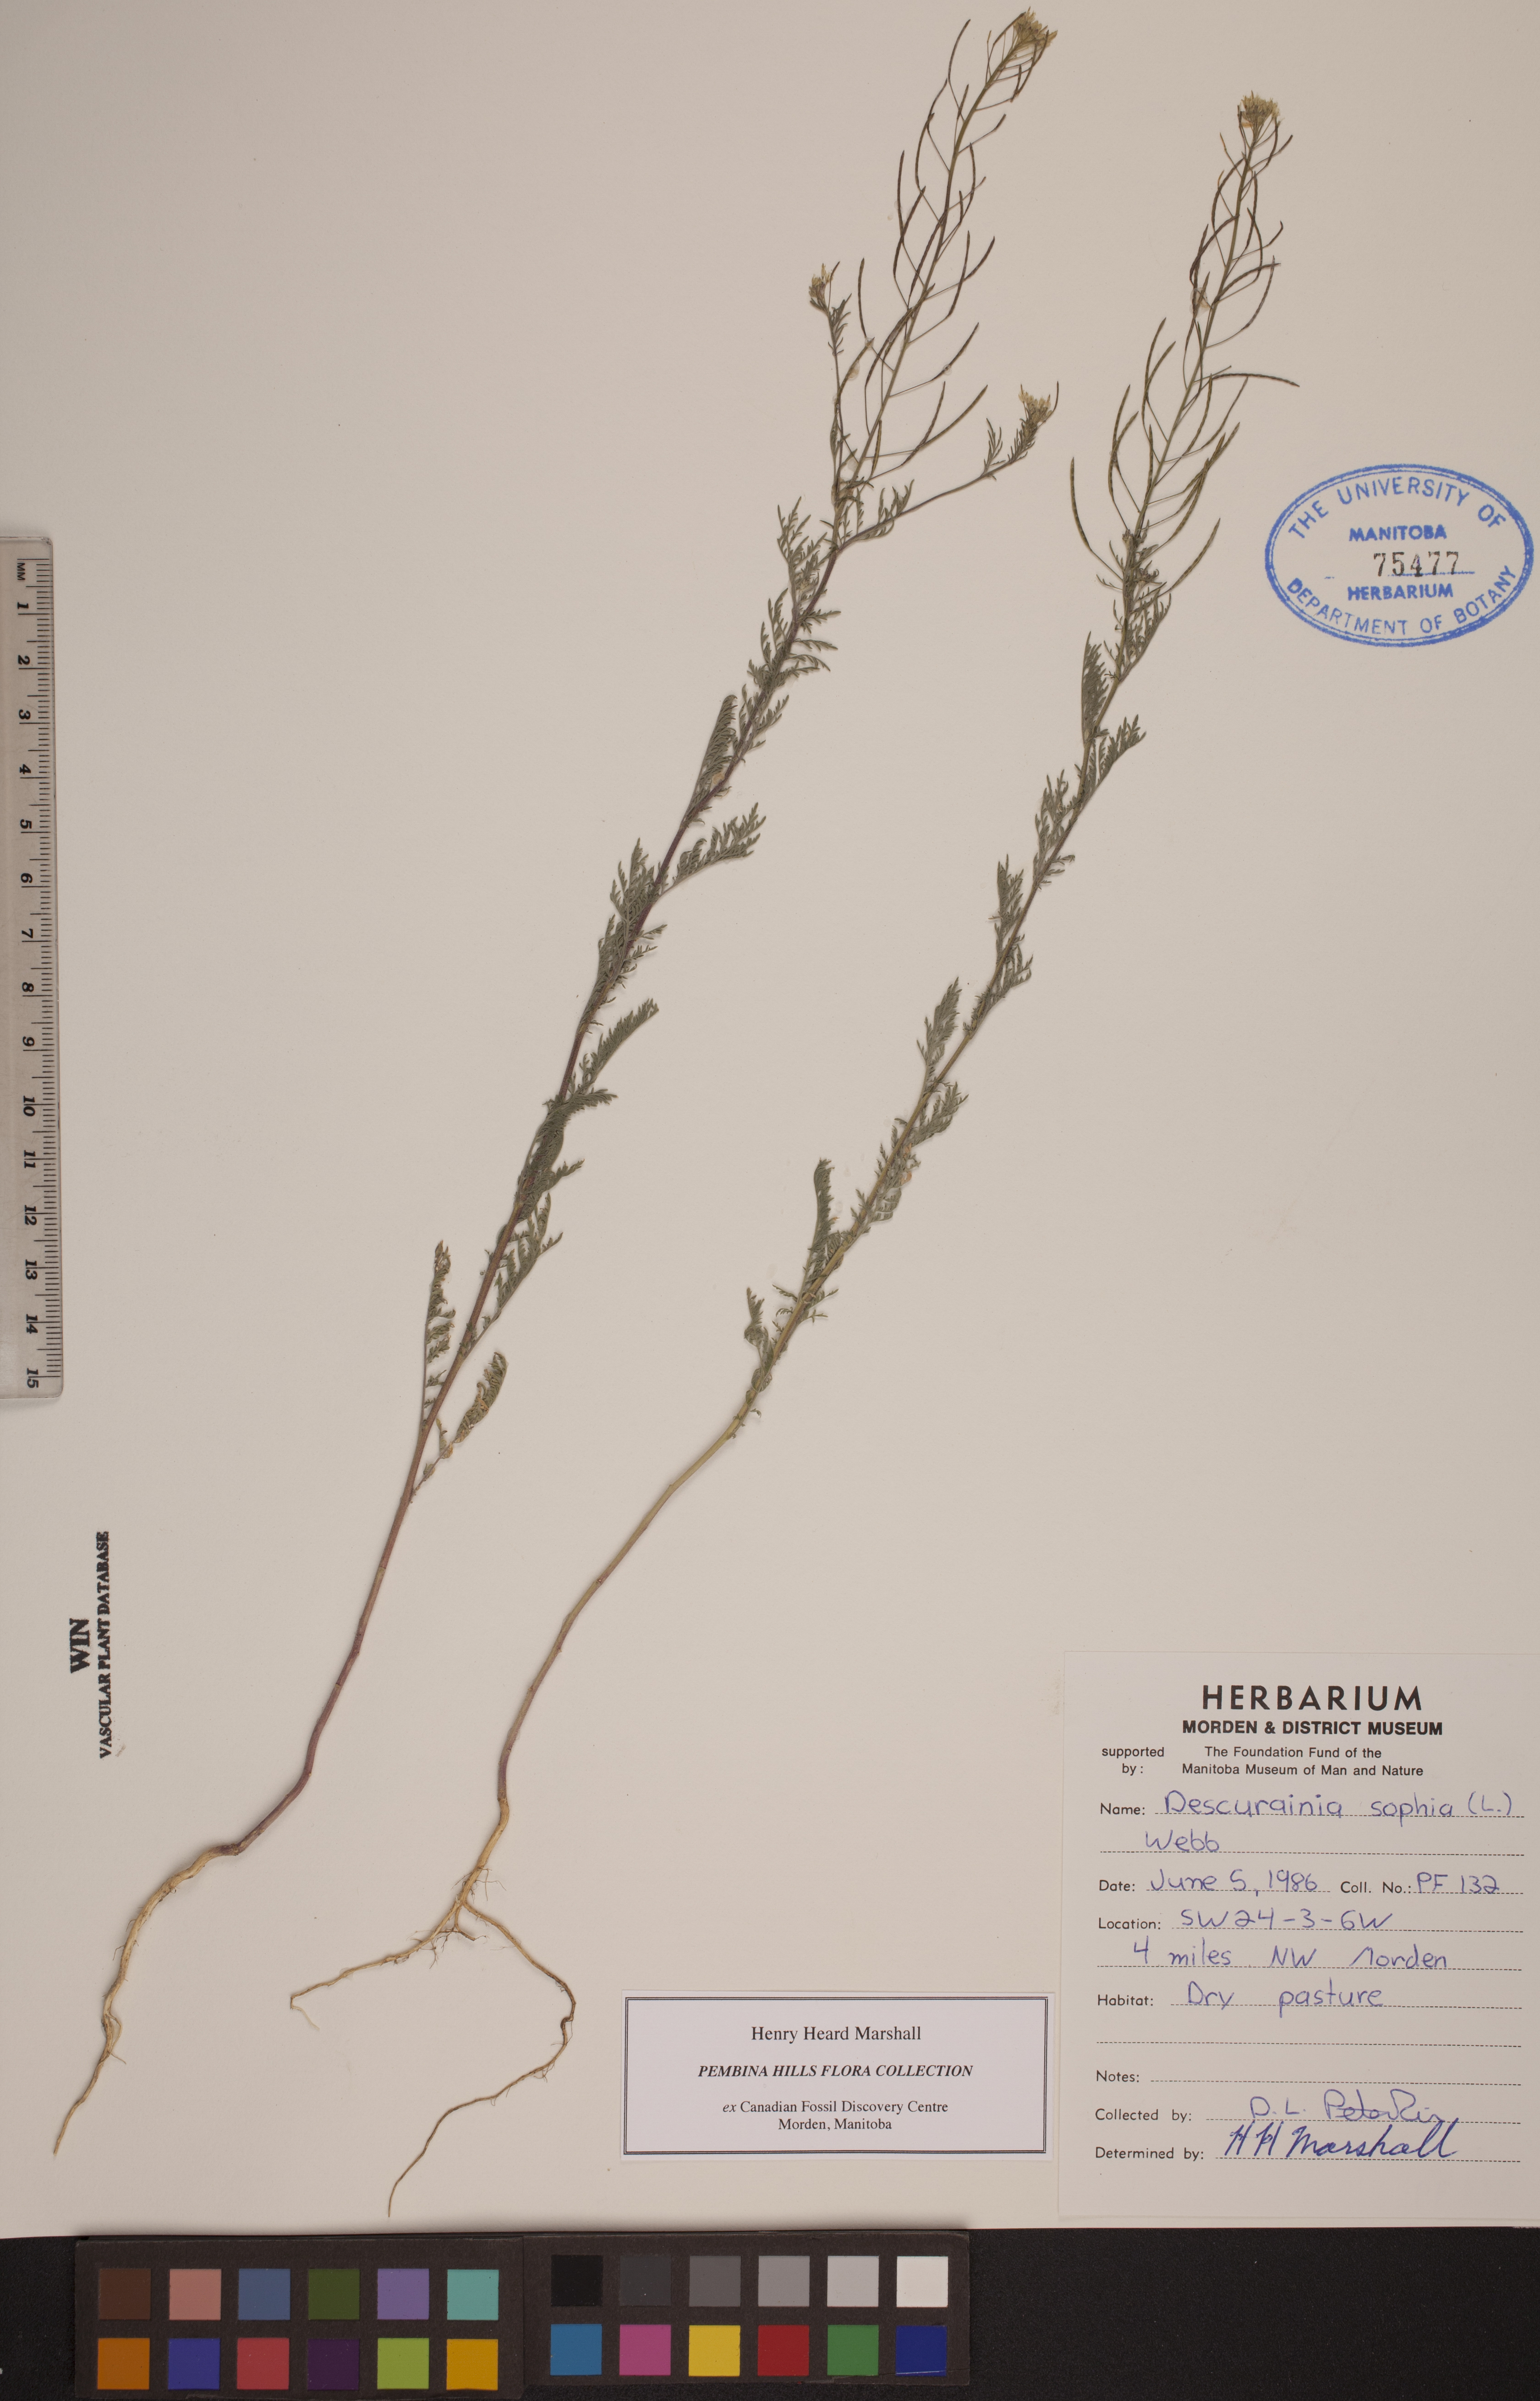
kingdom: Plantae
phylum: Tracheophyta
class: Magnoliopsida
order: Brassicales
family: Brassicaceae
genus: Descurainia
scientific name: Descurainia sophia
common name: Flixweed
